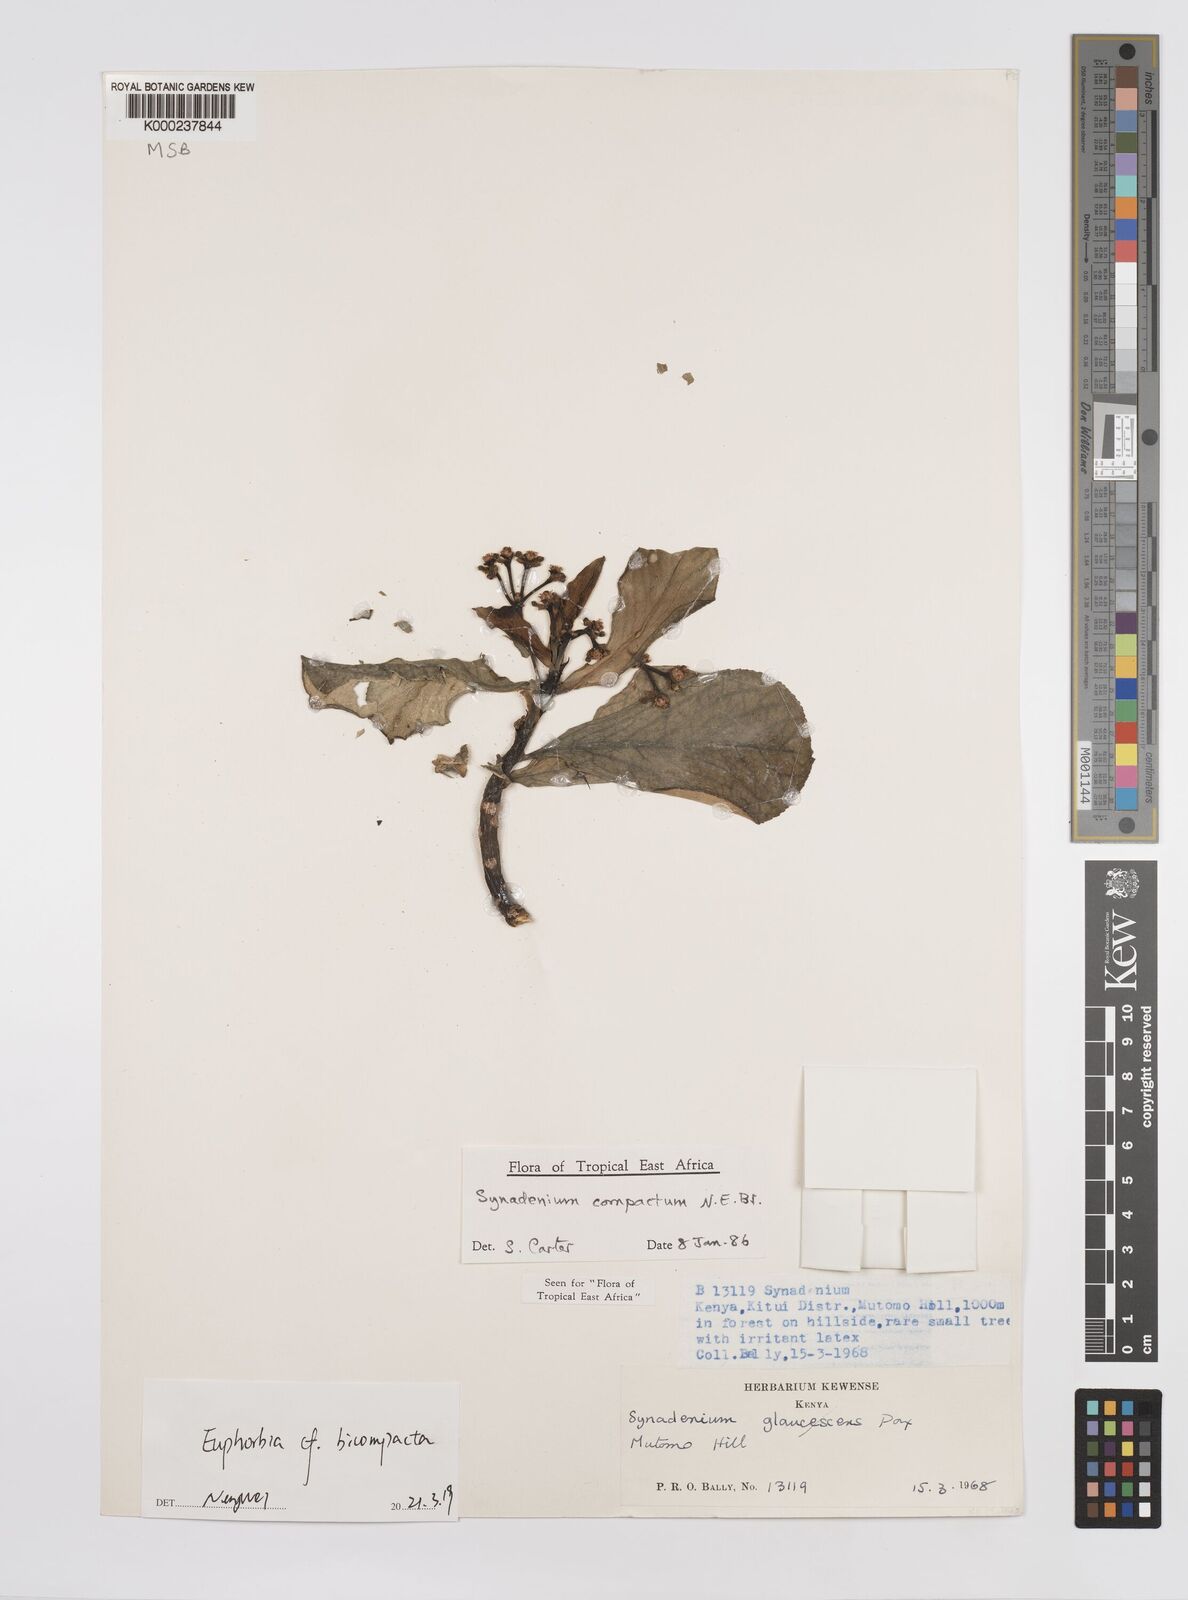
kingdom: Plantae
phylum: Tracheophyta
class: Magnoliopsida
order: Malpighiales
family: Euphorbiaceae
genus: Euphorbia
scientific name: Euphorbia bicompacta
